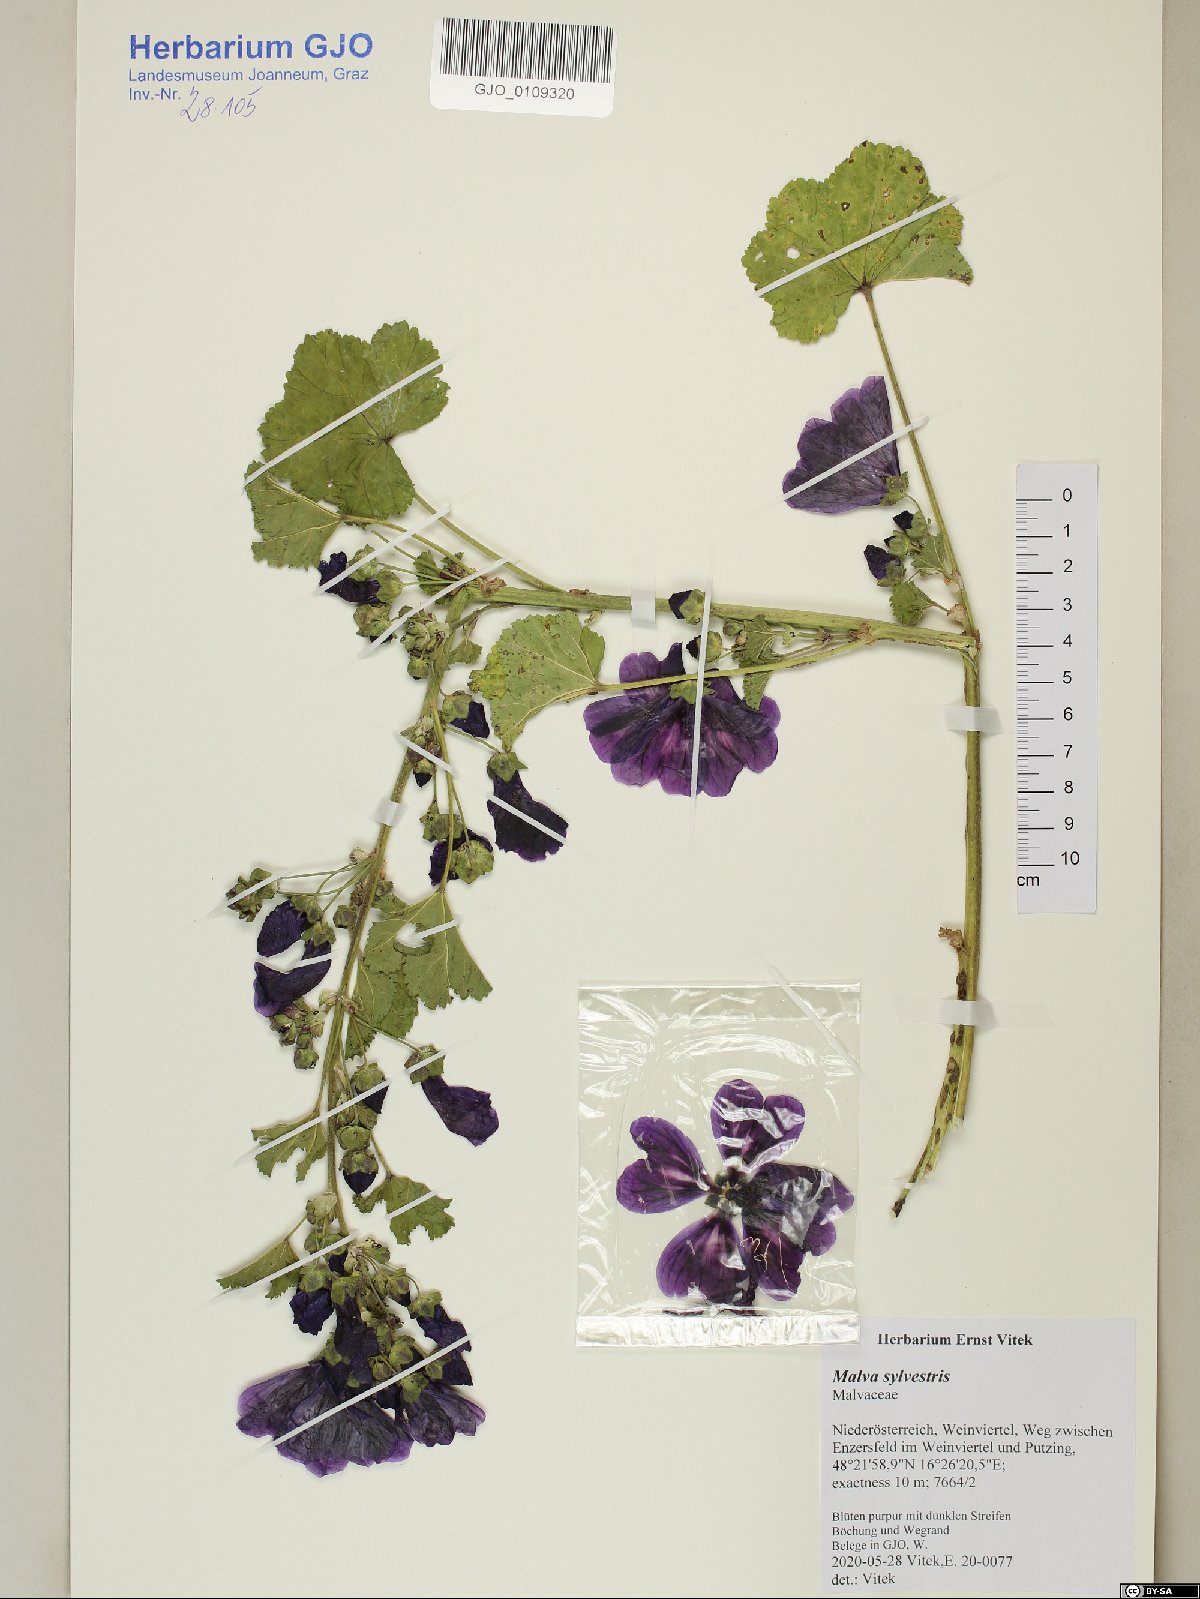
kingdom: Plantae
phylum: Tracheophyta
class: Magnoliopsida
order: Malvales
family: Malvaceae
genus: Malva
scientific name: Malva sylvestris
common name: Common mallow
